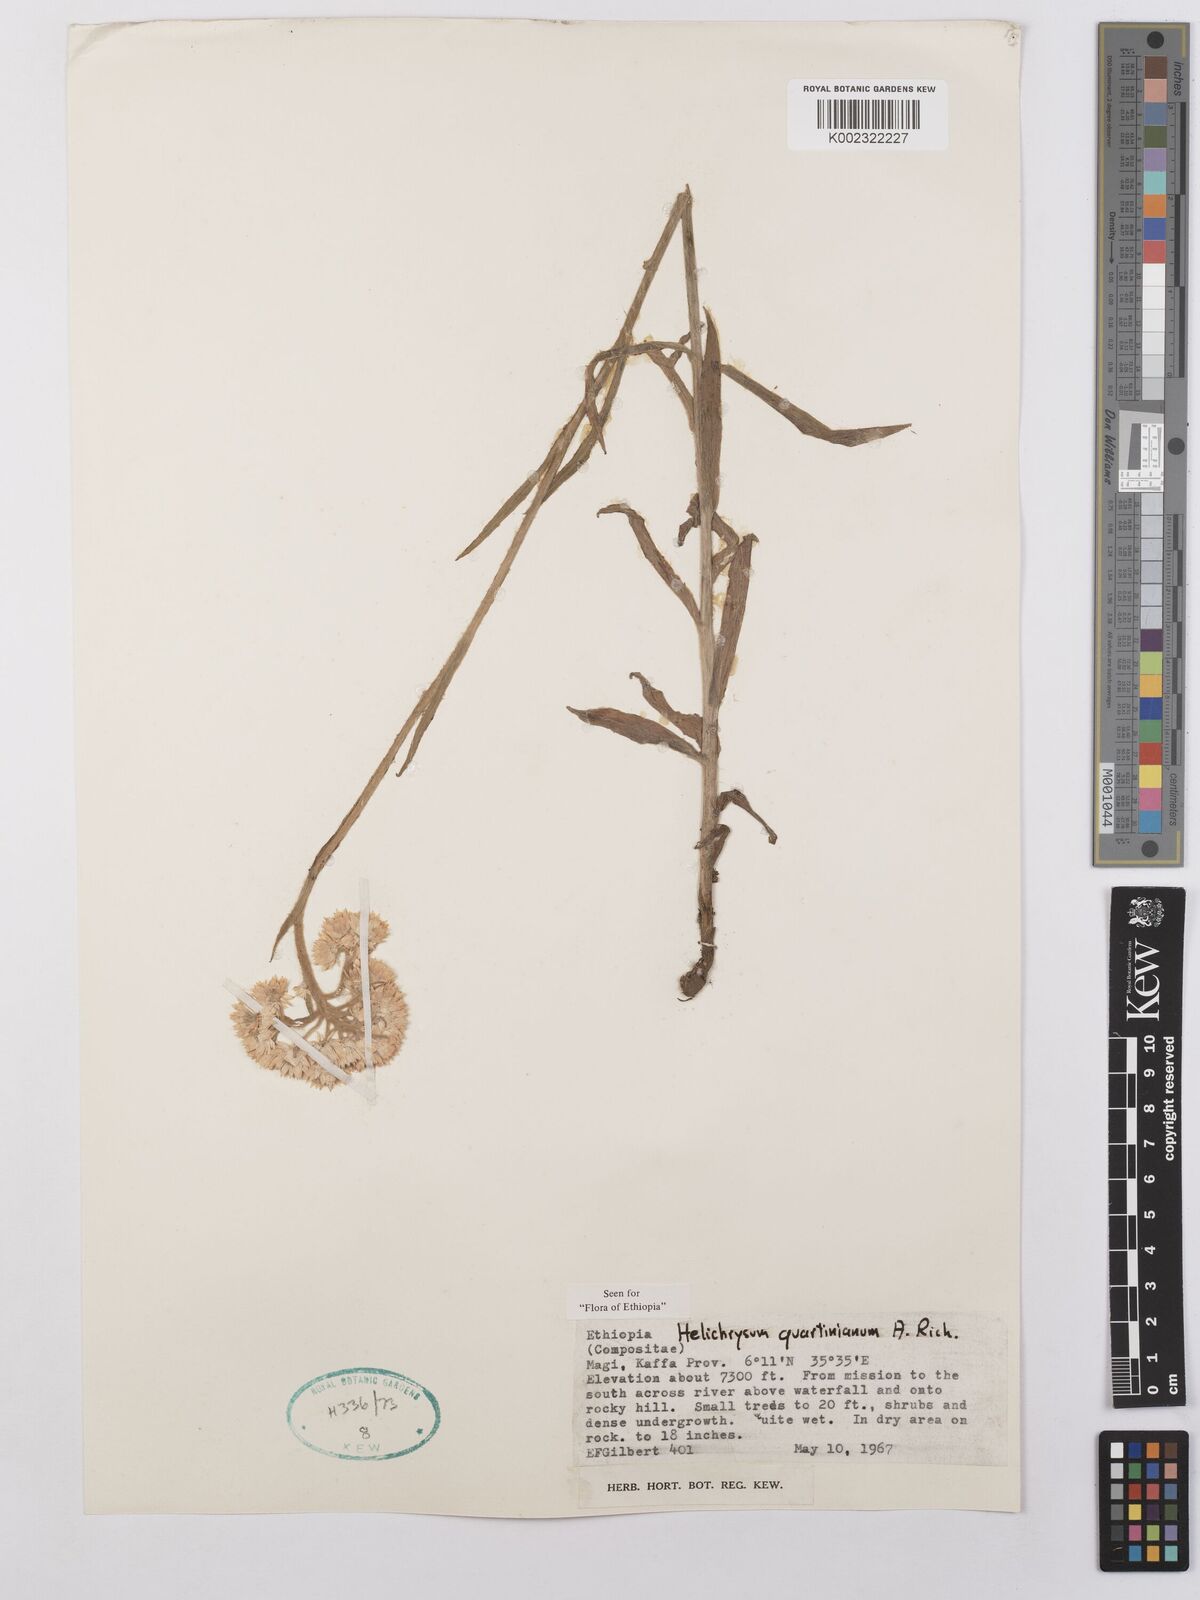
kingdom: Plantae
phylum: Tracheophyta
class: Magnoliopsida
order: Asterales
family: Asteraceae
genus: Helichrysum
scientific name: Helichrysum quartinianum
